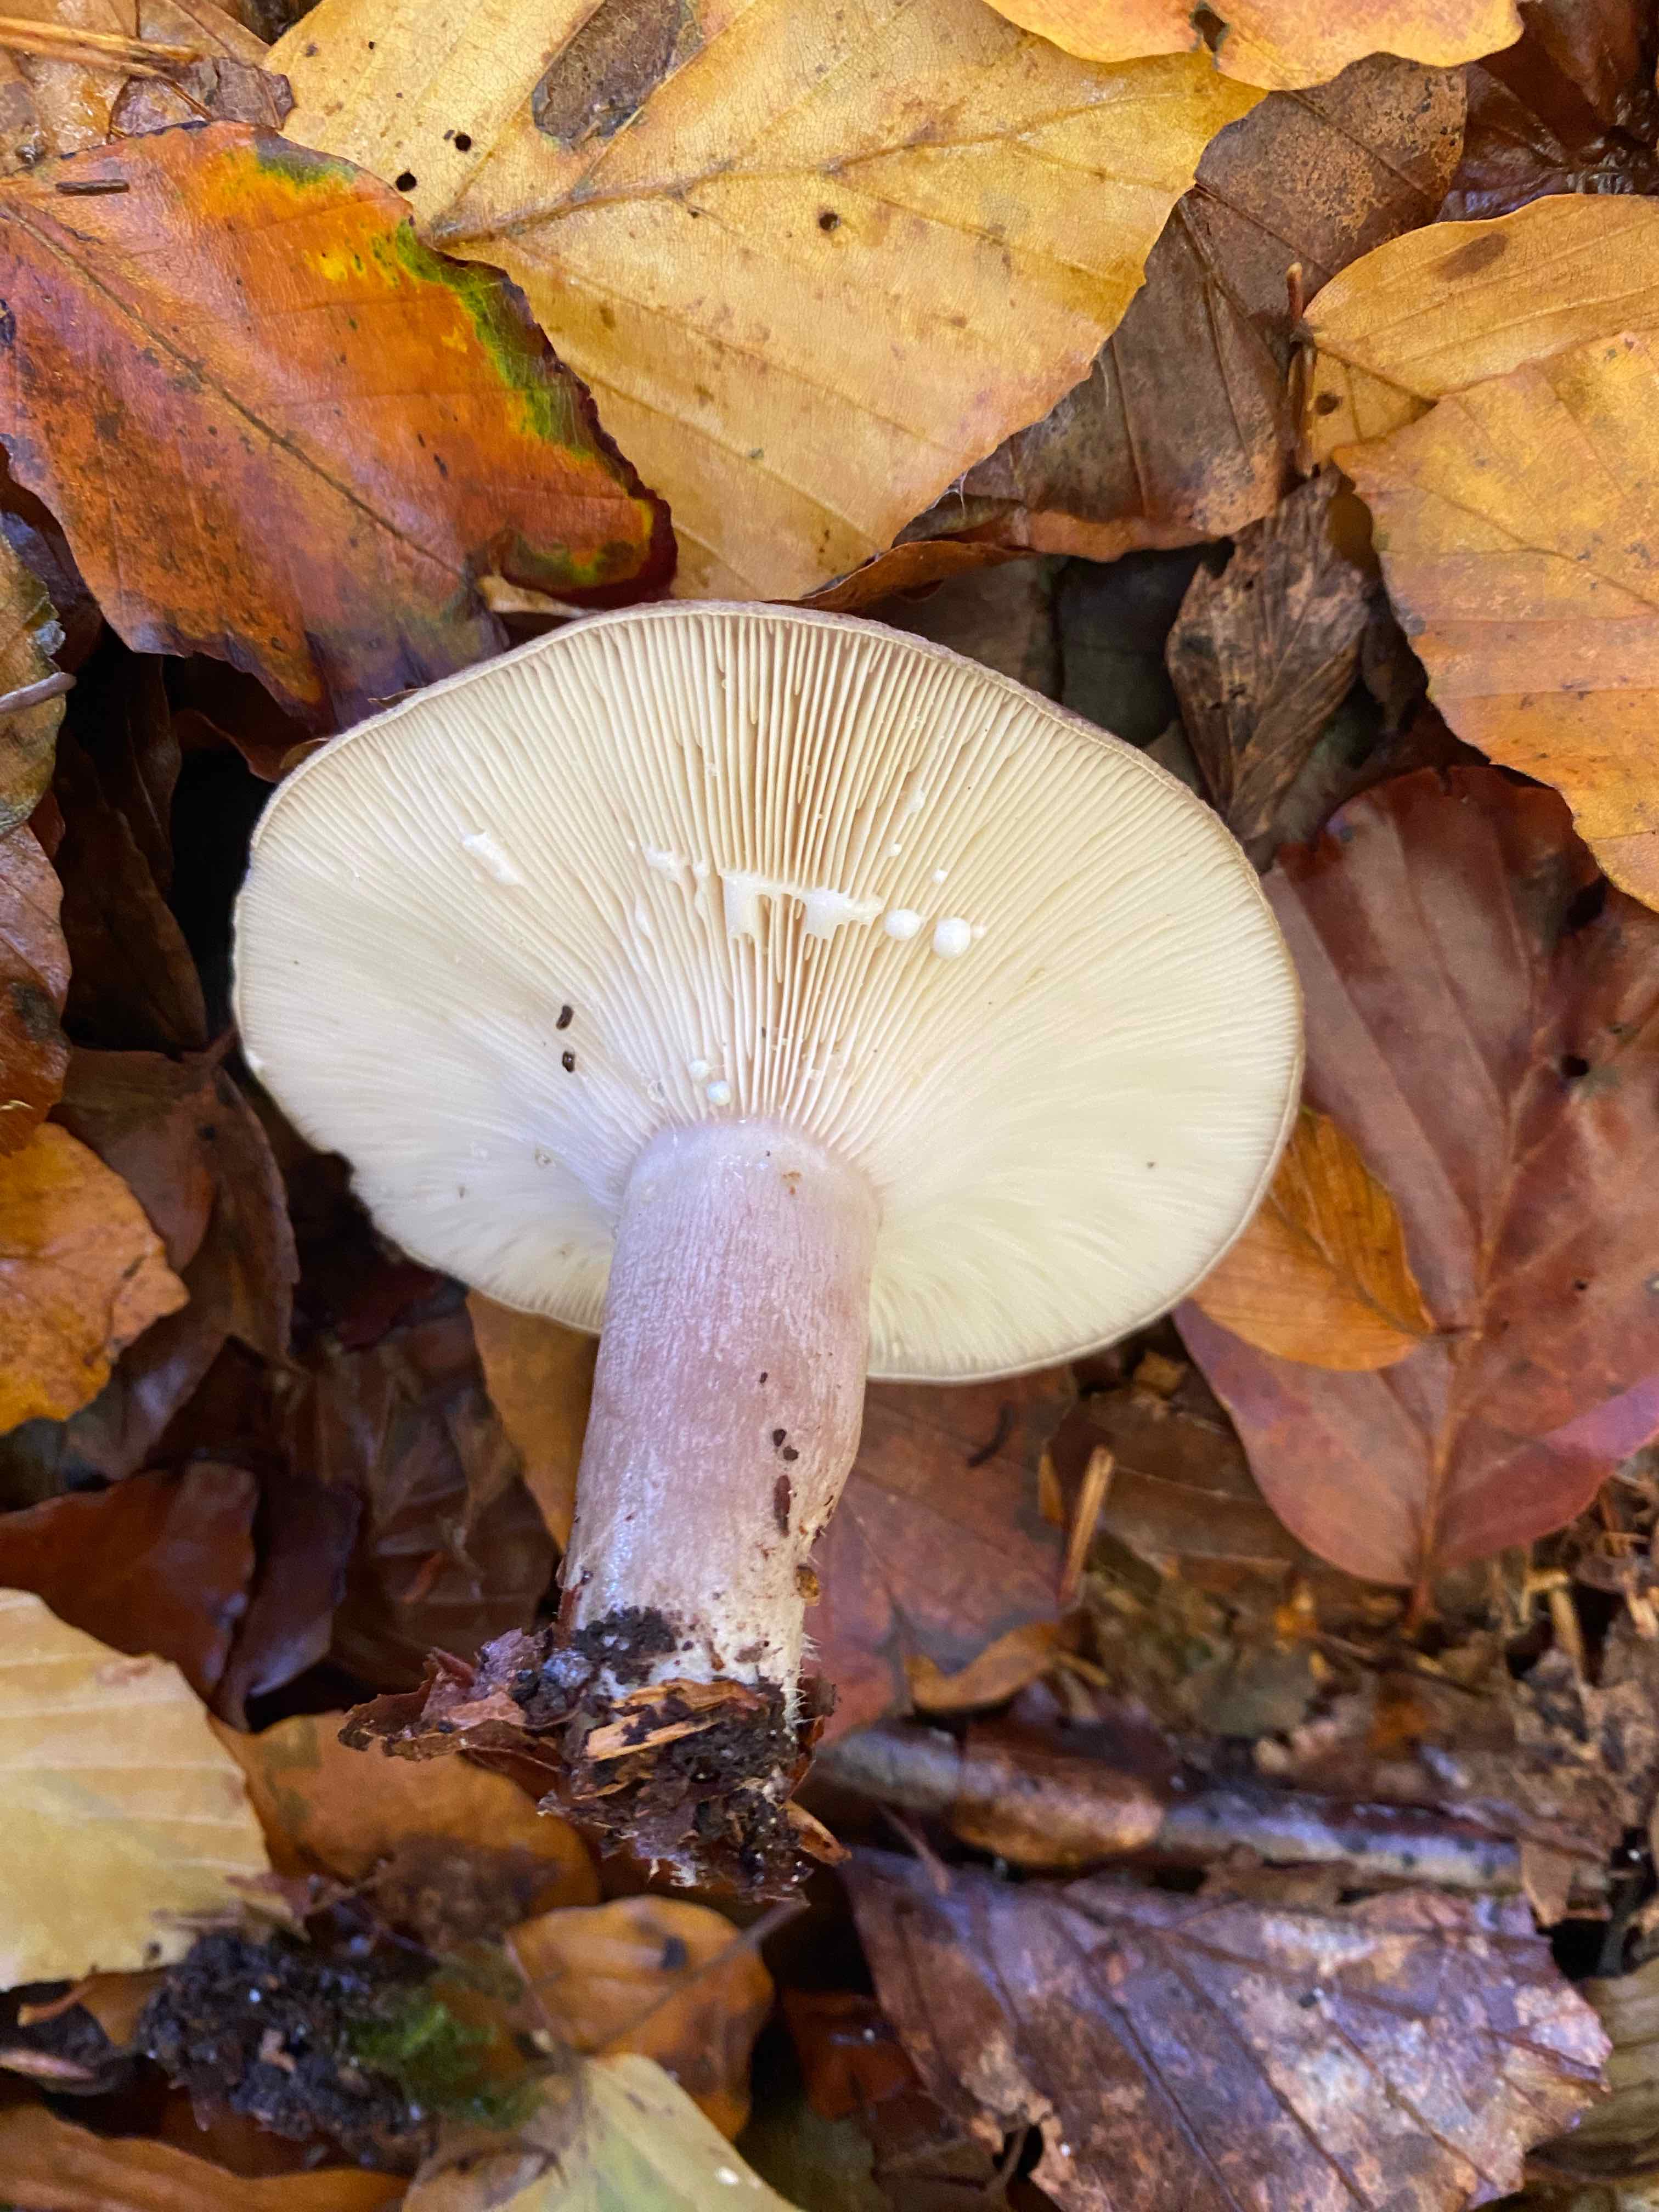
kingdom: Fungi
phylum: Basidiomycota
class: Agaricomycetes
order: Russulales
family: Russulaceae
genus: Lactarius
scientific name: Lactarius blennius
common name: dråbeplettet mælkehat
